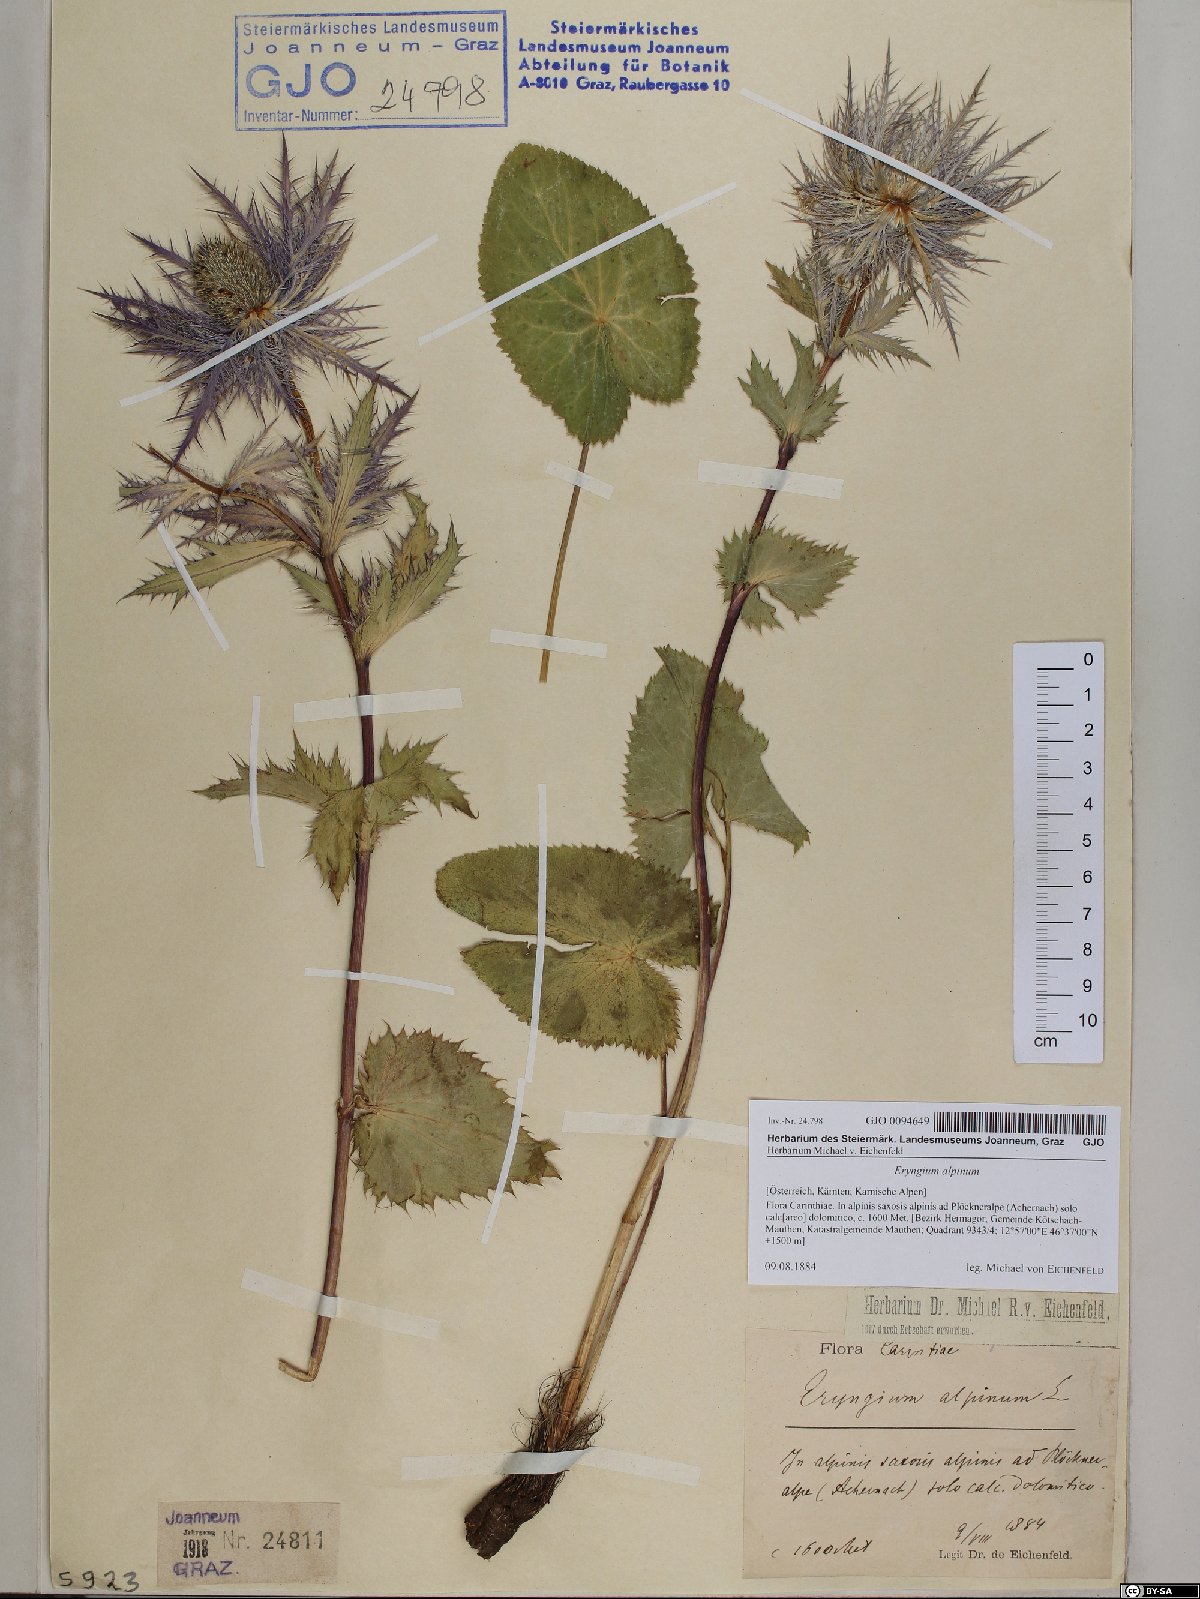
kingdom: Plantae
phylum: Tracheophyta
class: Magnoliopsida
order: Apiales
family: Apiaceae
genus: Eryngium
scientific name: Eryngium alpinum
